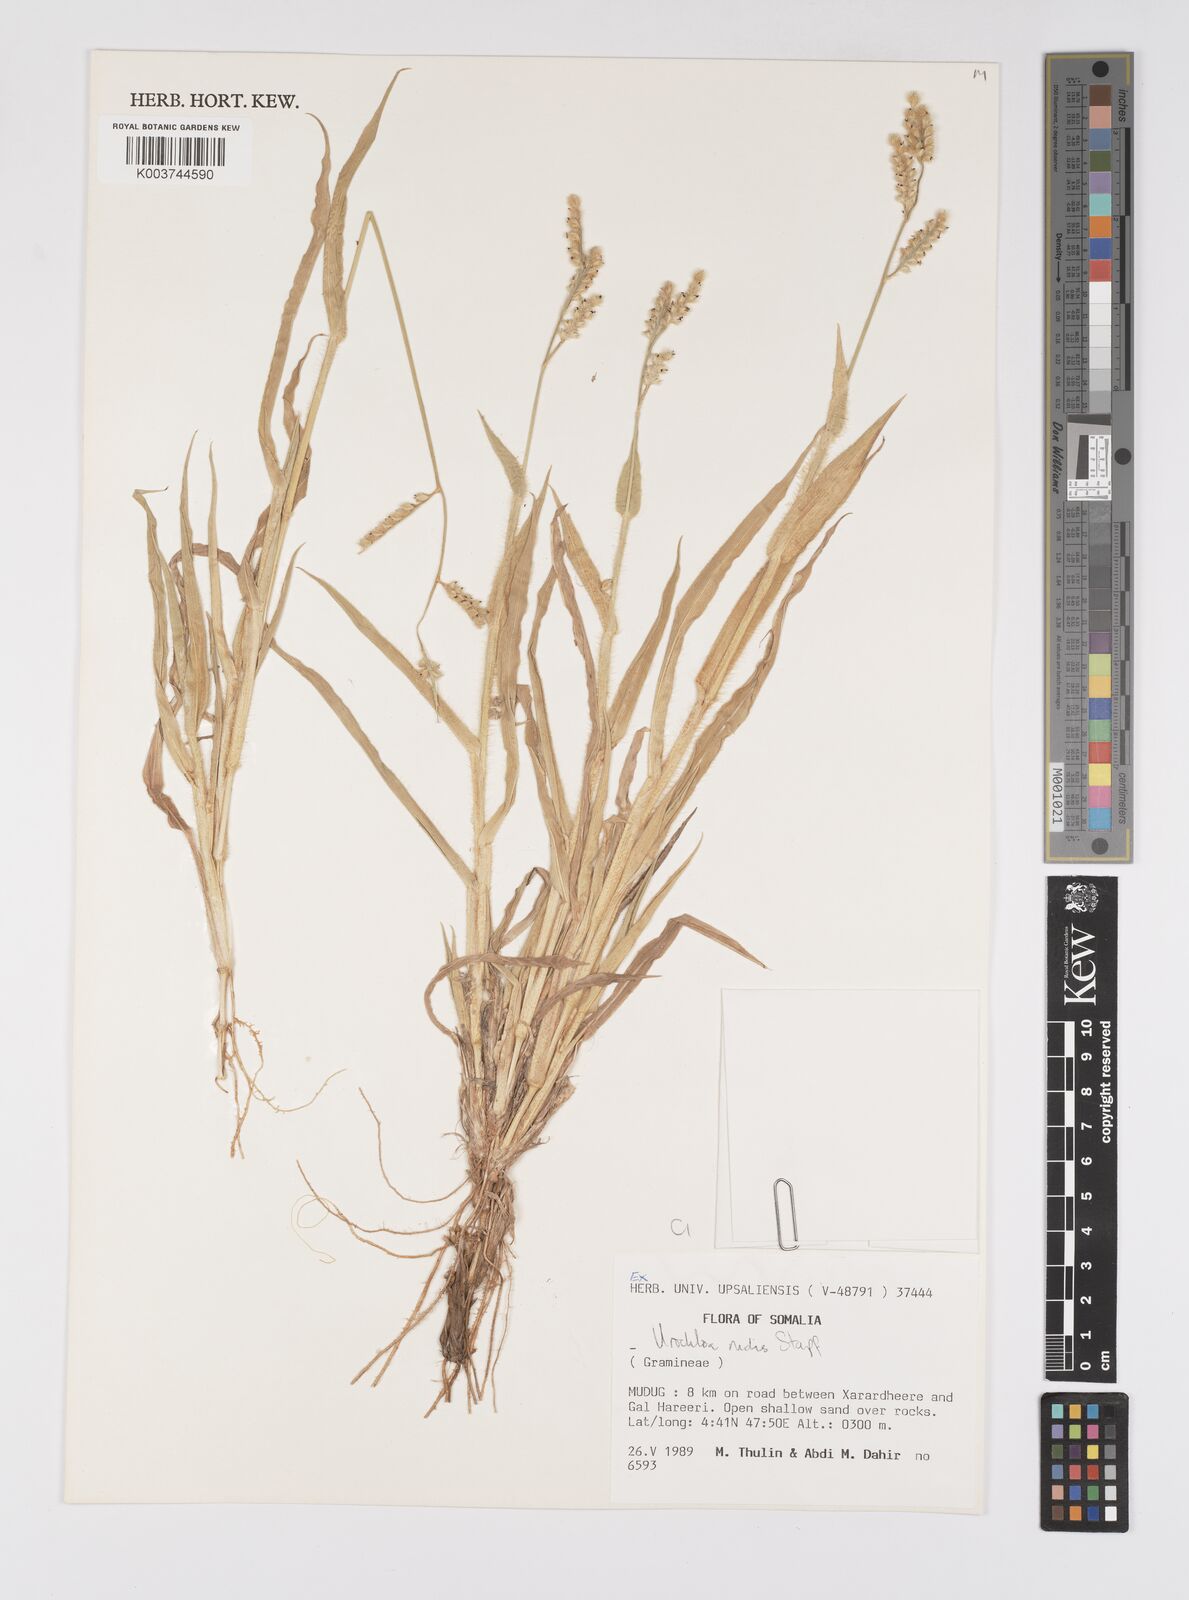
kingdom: Plantae
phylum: Tracheophyta
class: Liliopsida
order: Poales
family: Poaceae
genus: Urochloa
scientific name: Urochloa rudis
